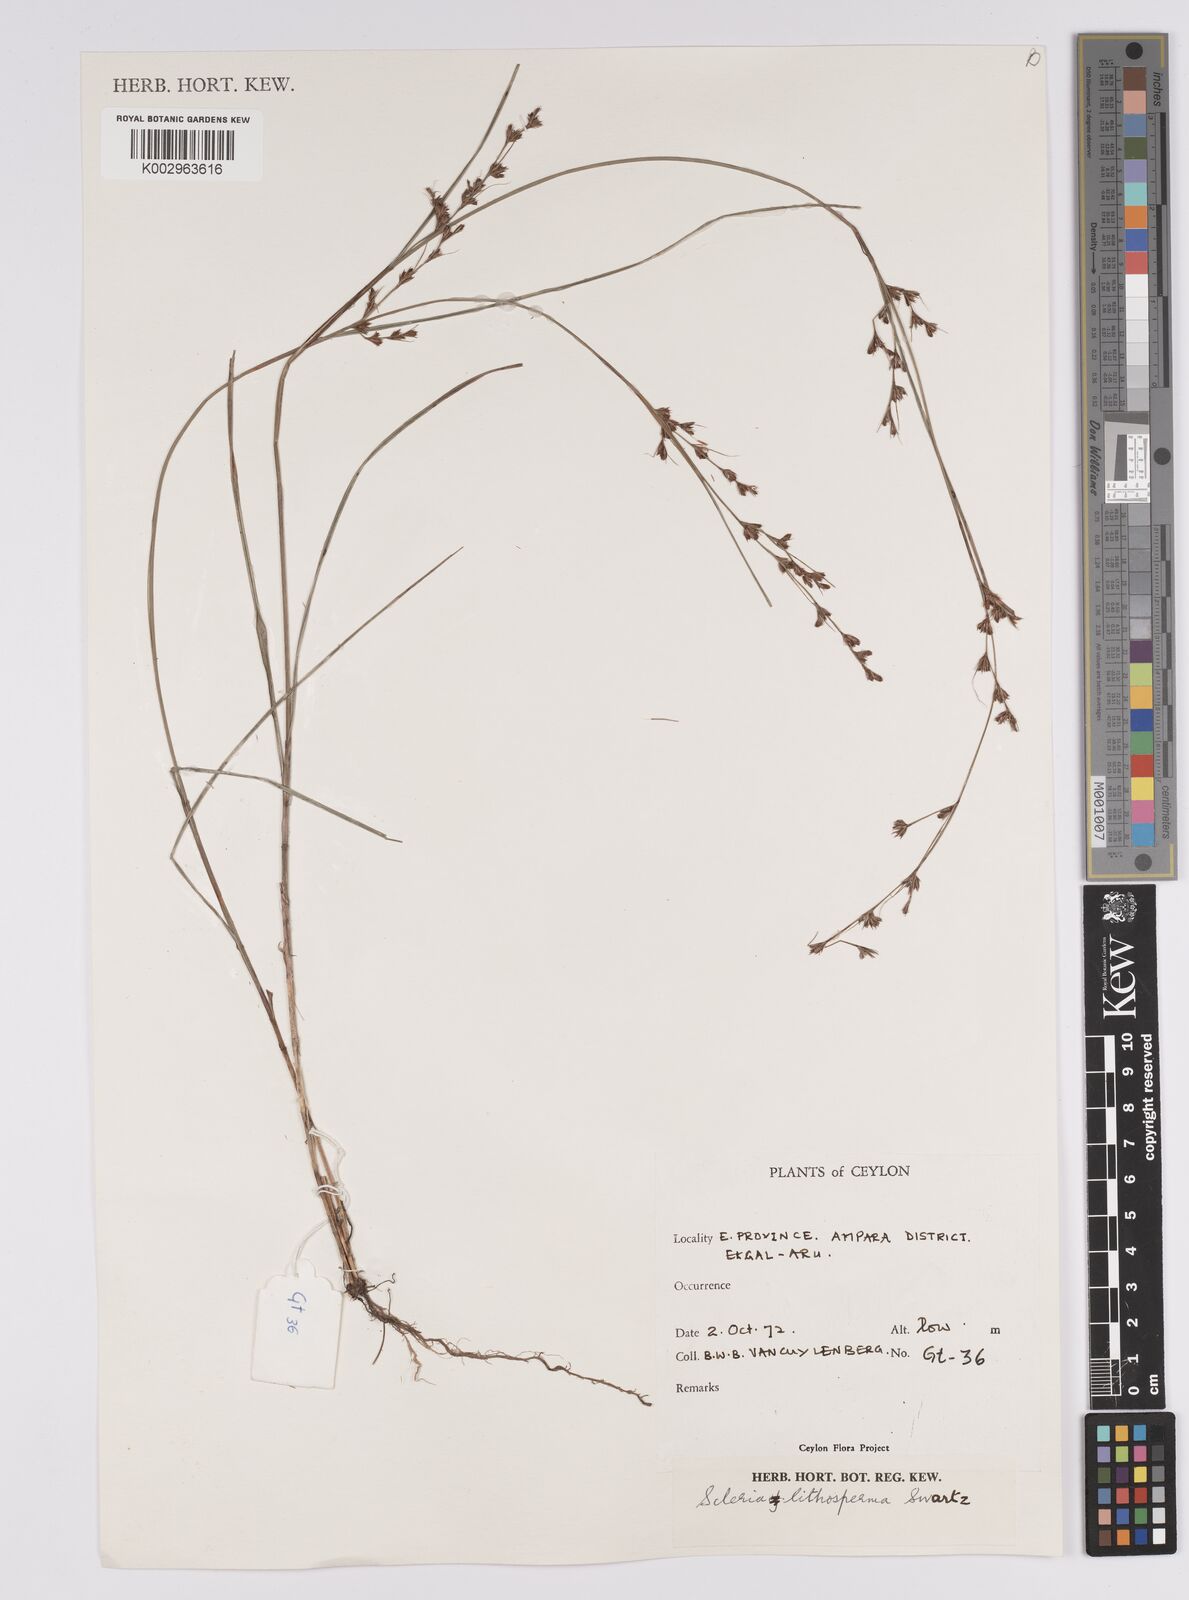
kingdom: Plantae
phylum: Tracheophyta
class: Liliopsida
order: Poales
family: Cyperaceae
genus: Scleria
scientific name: Scleria lithosperma
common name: Florida keys nut-rush
